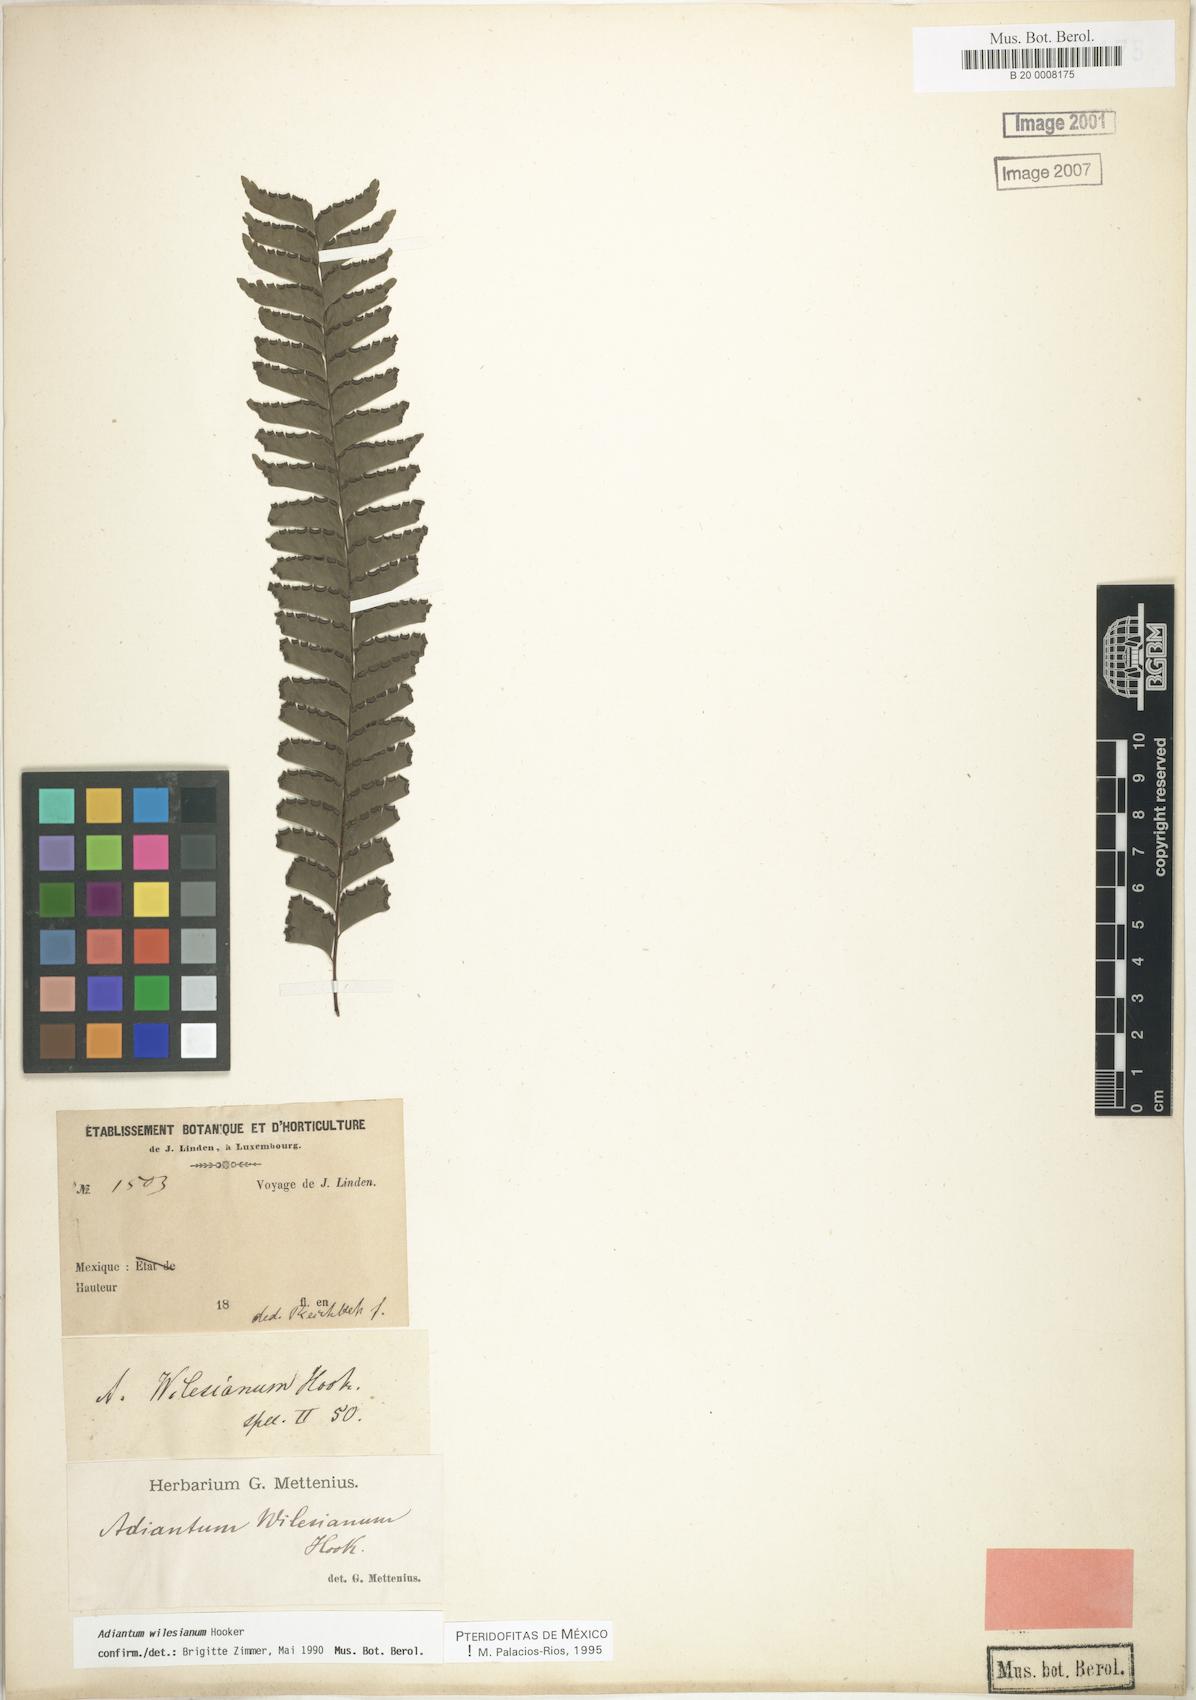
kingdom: Plantae
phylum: Tracheophyta
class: Polypodiopsida
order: Polypodiales
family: Pteridaceae
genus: Adiantum
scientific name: Adiantum wilesianum
